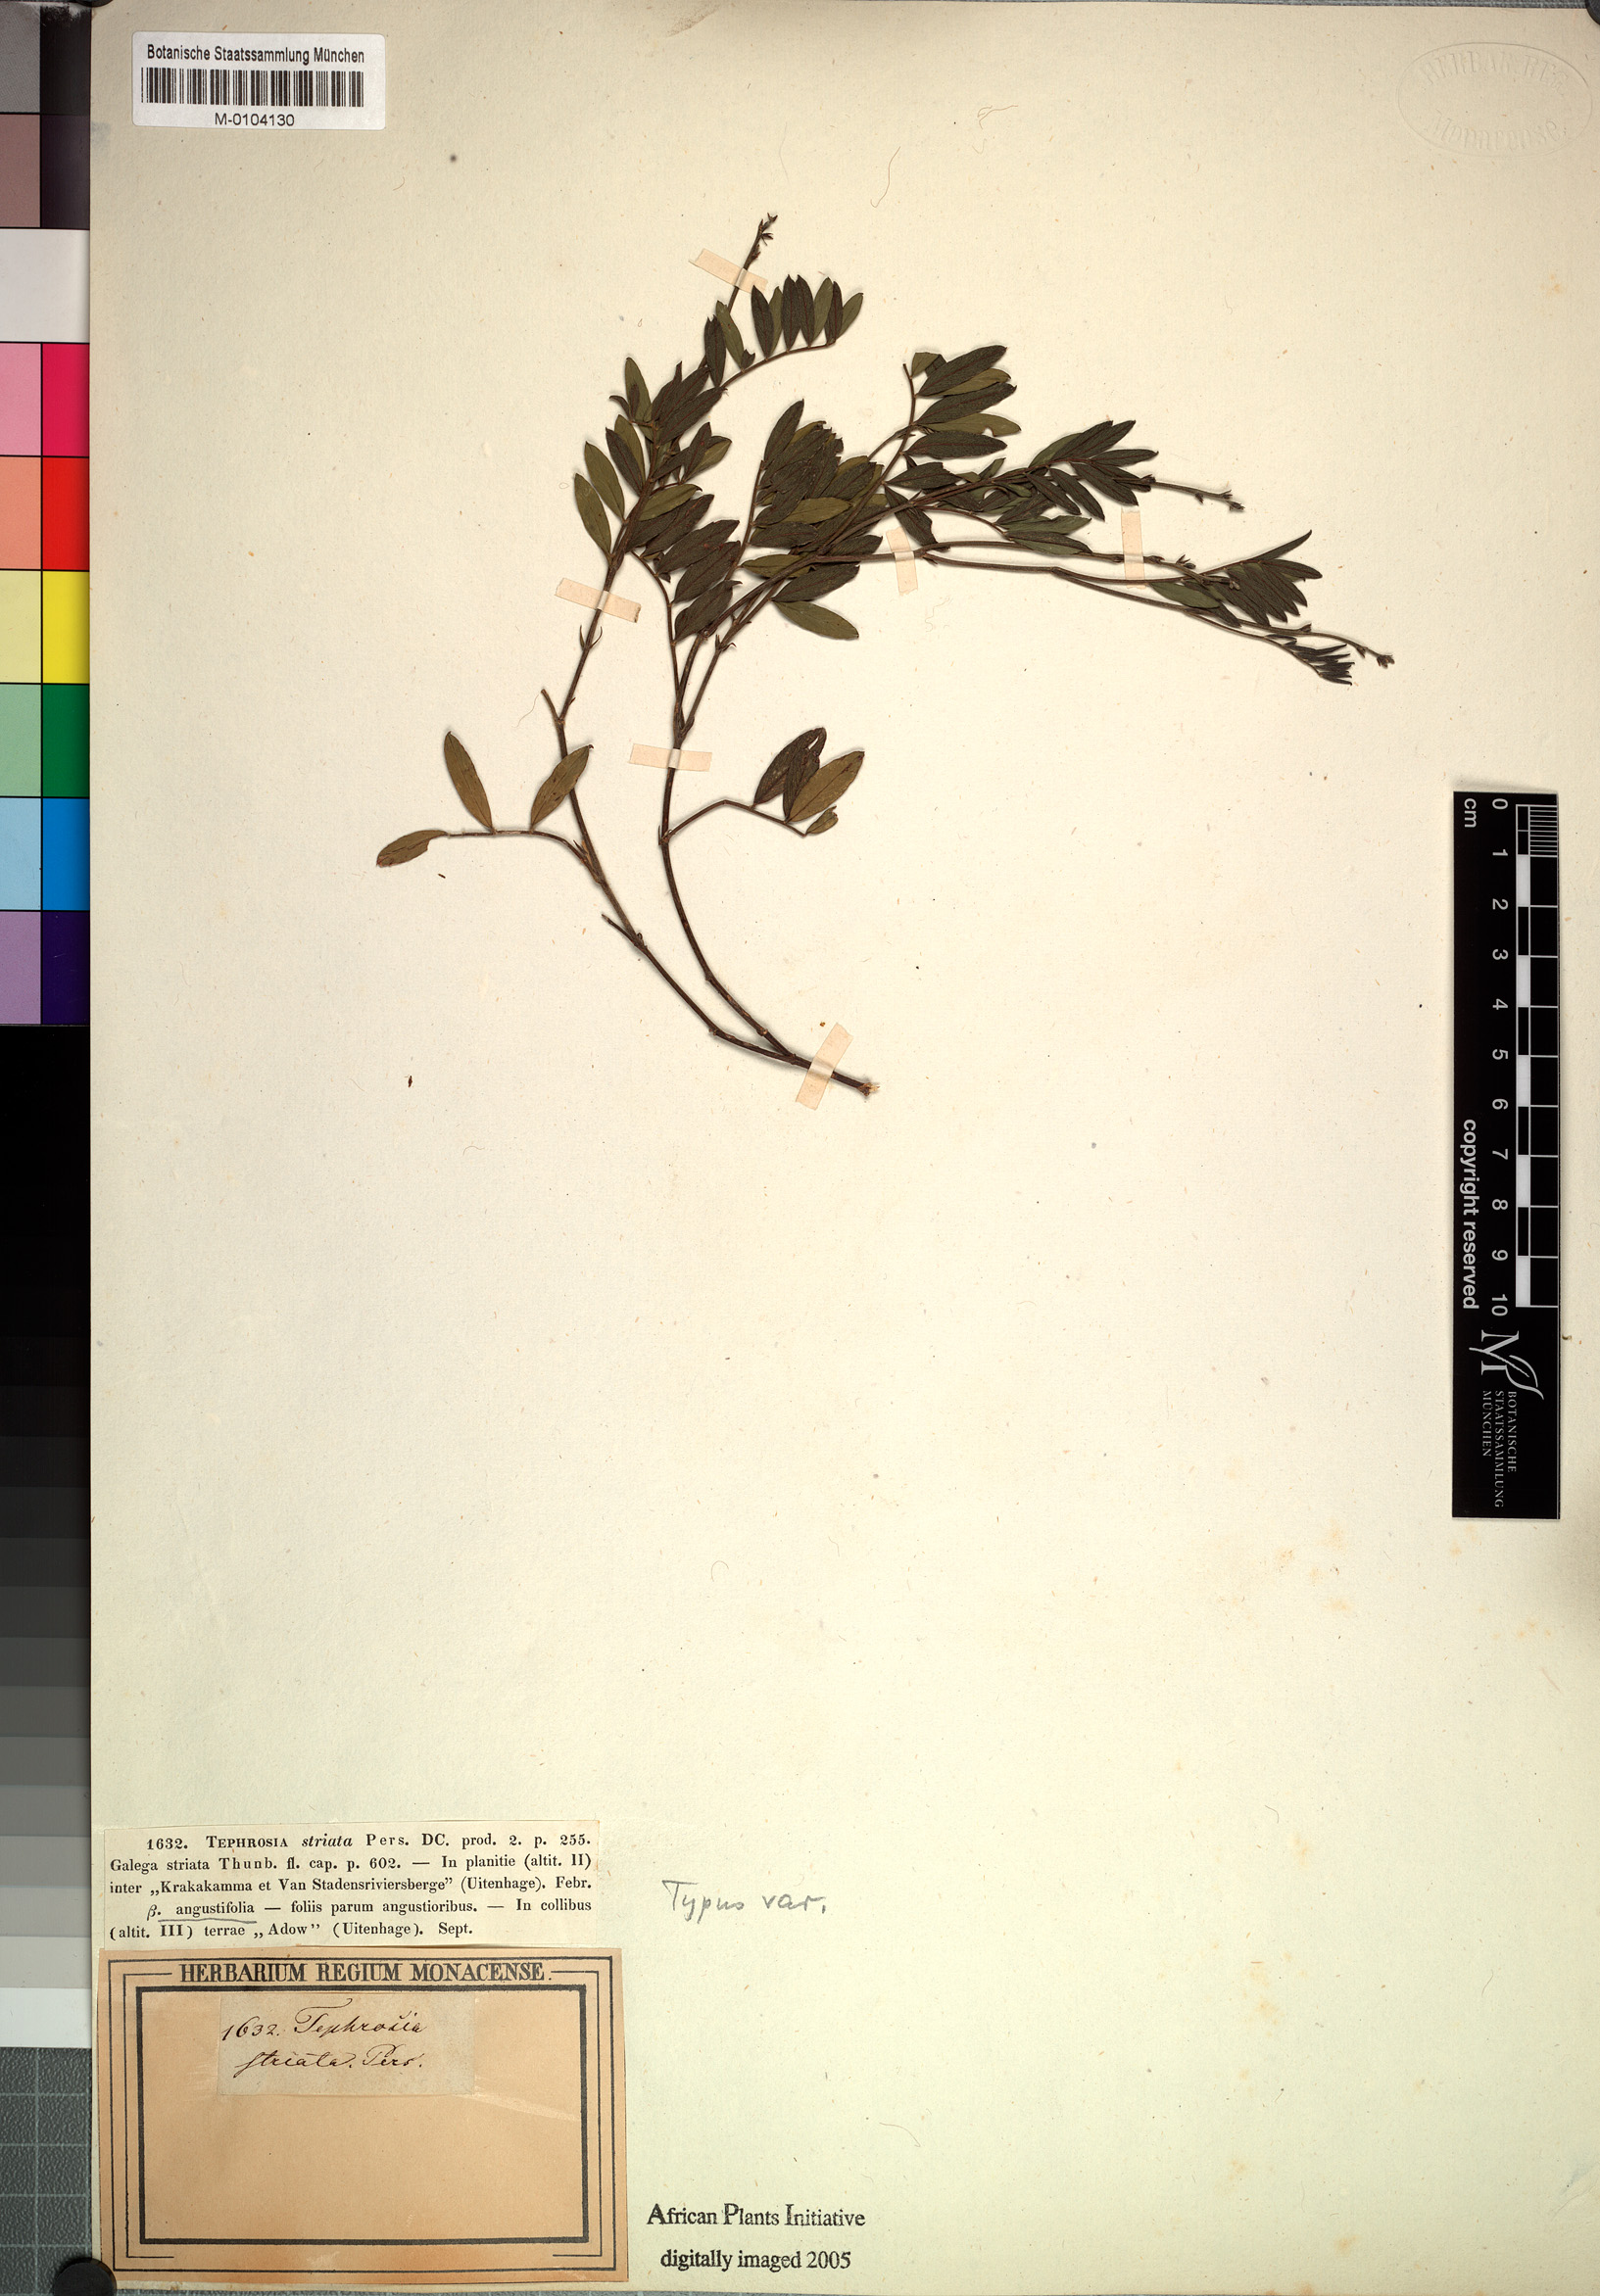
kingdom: Plantae
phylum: Tracheophyta
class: Magnoliopsida
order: Fabales
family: Fabaceae
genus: Tephrosia
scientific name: Tephrosia capensis
